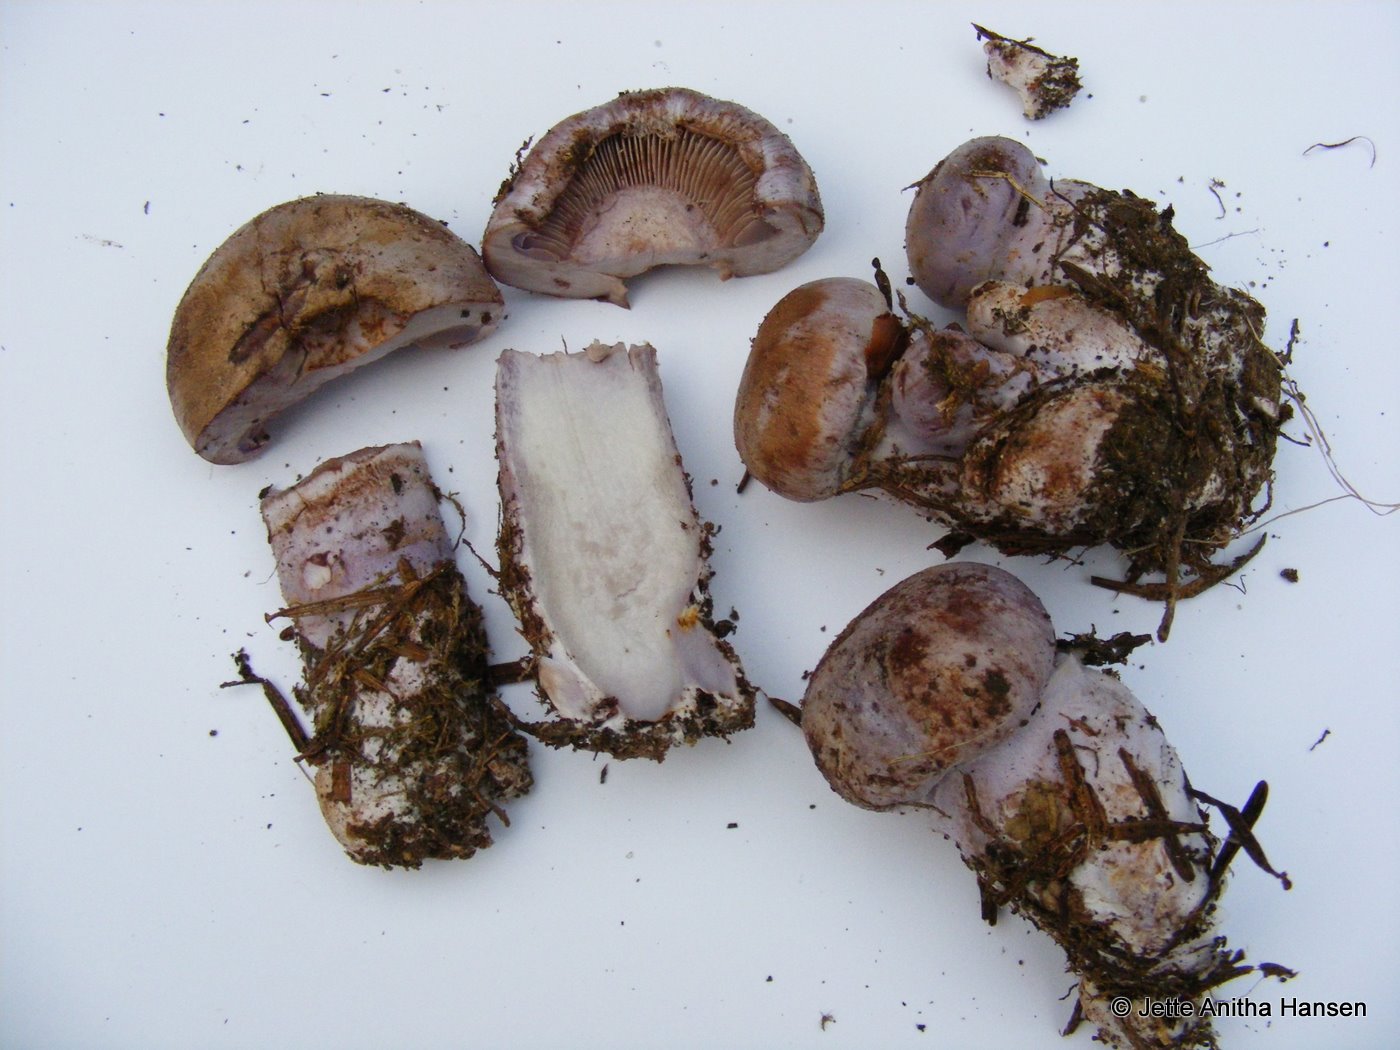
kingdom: Fungi
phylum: Basidiomycota
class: Agaricomycetes
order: Agaricales
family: Cortinariaceae
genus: Thaxterogaster
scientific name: Thaxterogaster purpurascens
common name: purpurbrun slørhat
